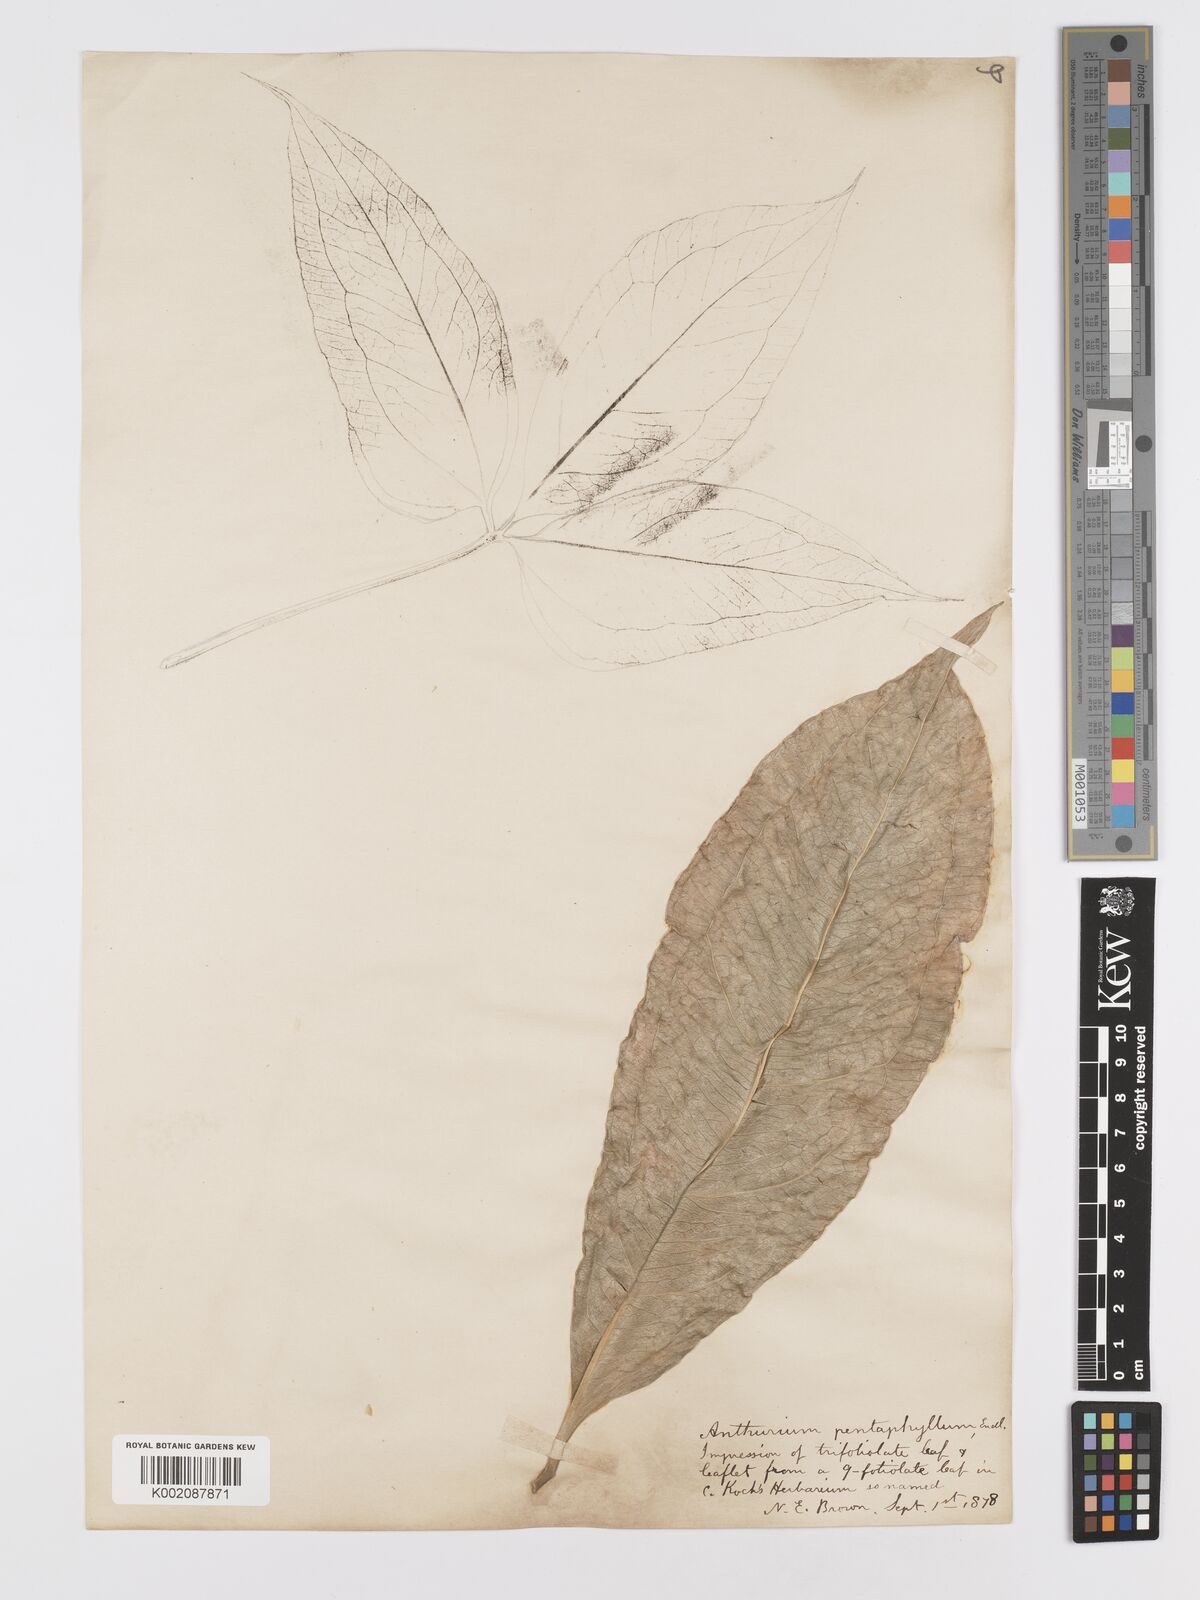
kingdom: Plantae
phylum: Tracheophyta
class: Liliopsida
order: Alismatales
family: Araceae
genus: Anthurium
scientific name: Anthurium pentaphyllum
